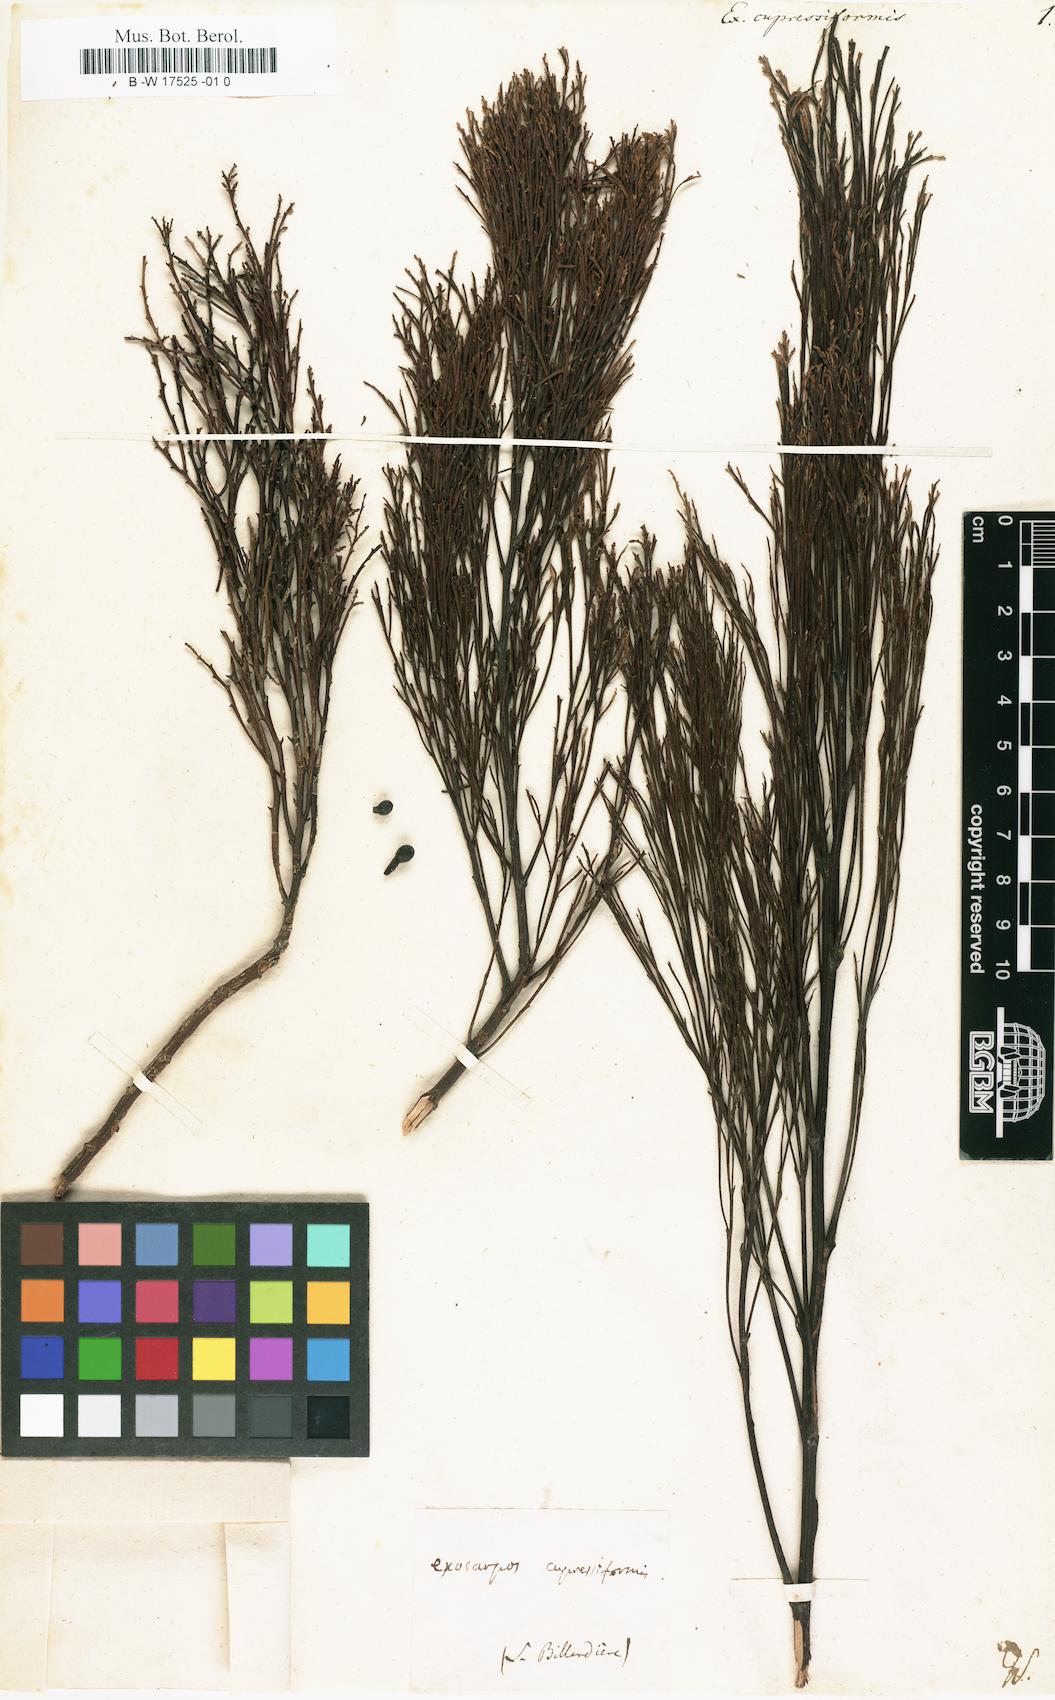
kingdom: Plantae
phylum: Tracheophyta
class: Magnoliopsida
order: Santalales
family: Santalaceae
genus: Exocarpos
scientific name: Exocarpos cupressiformis
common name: Cherry ballart
